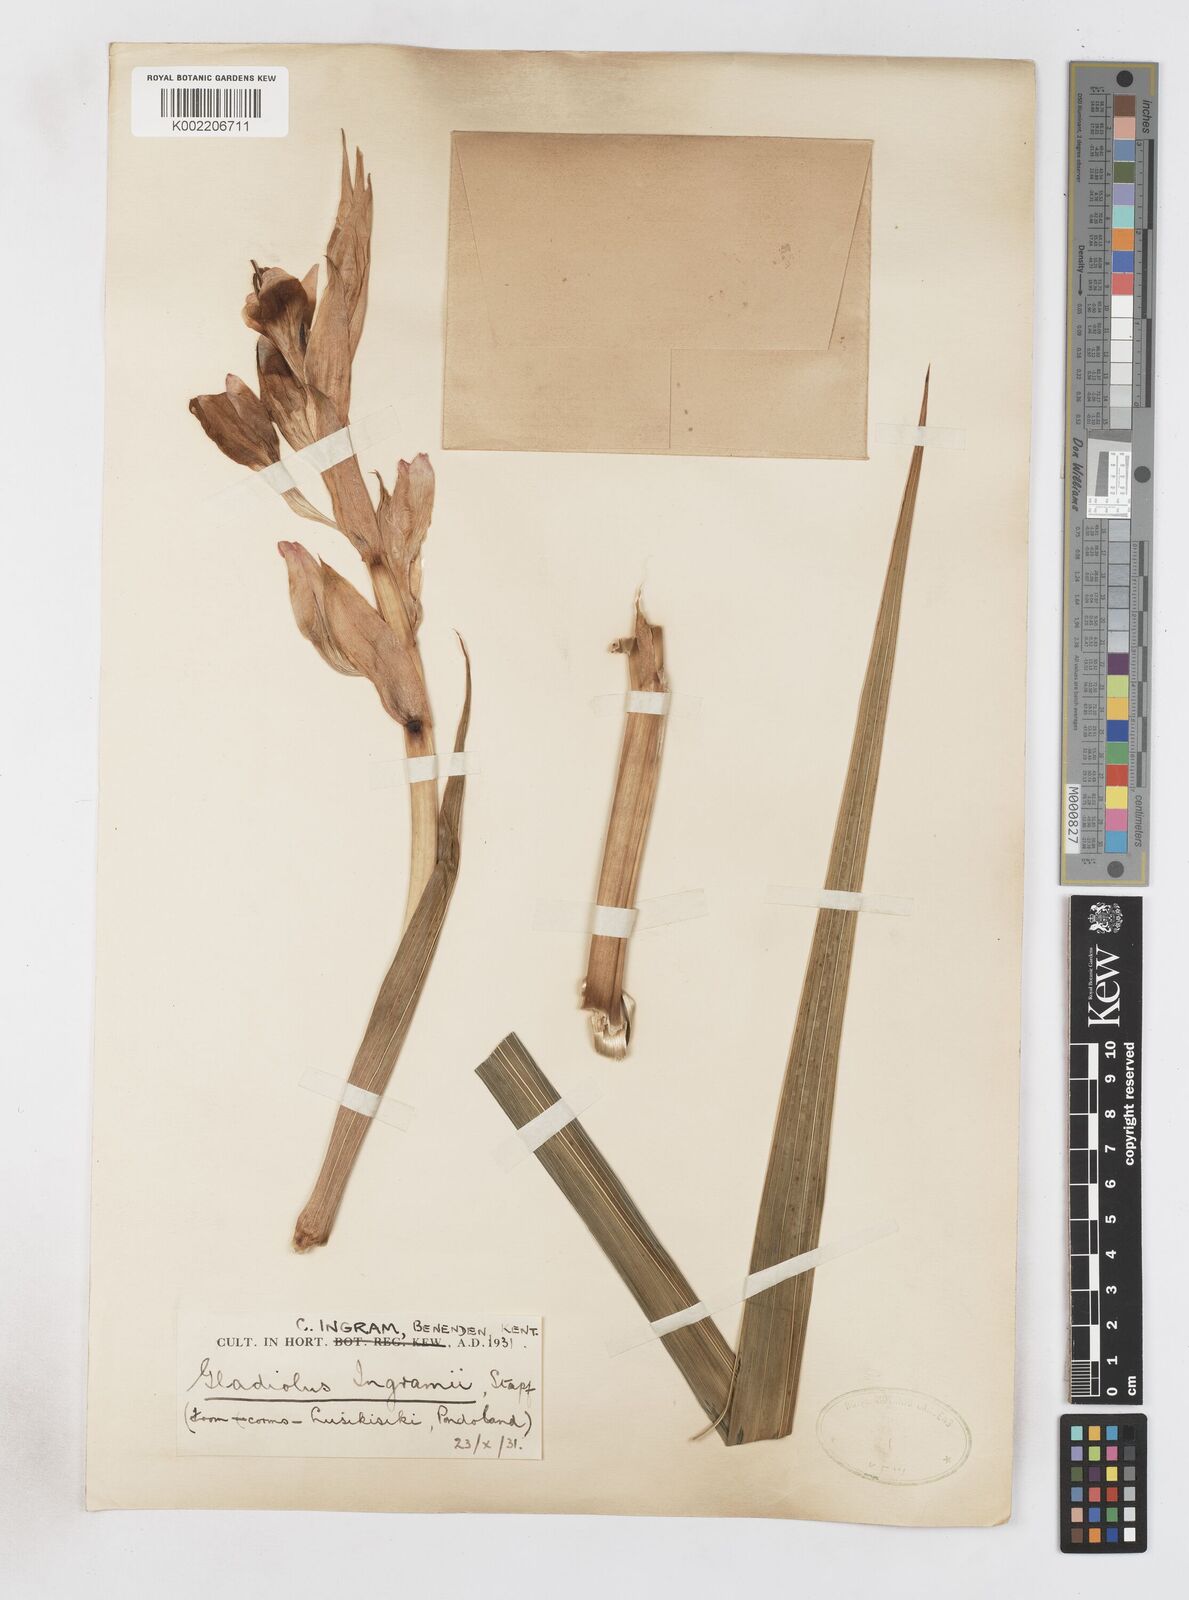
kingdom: Plantae
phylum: Tracheophyta
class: Liliopsida
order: Asparagales
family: Iridaceae
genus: Gladiolus
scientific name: Gladiolus
